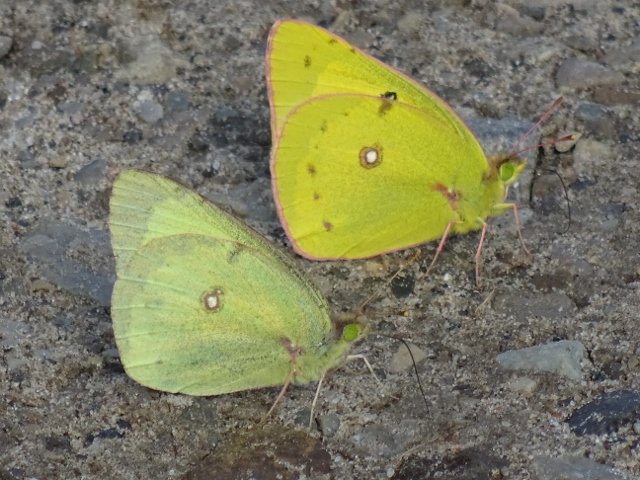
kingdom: Animalia
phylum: Arthropoda
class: Insecta
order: Lepidoptera
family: Pieridae
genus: Colias
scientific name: Colias philodice
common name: Clouded Sulphur
